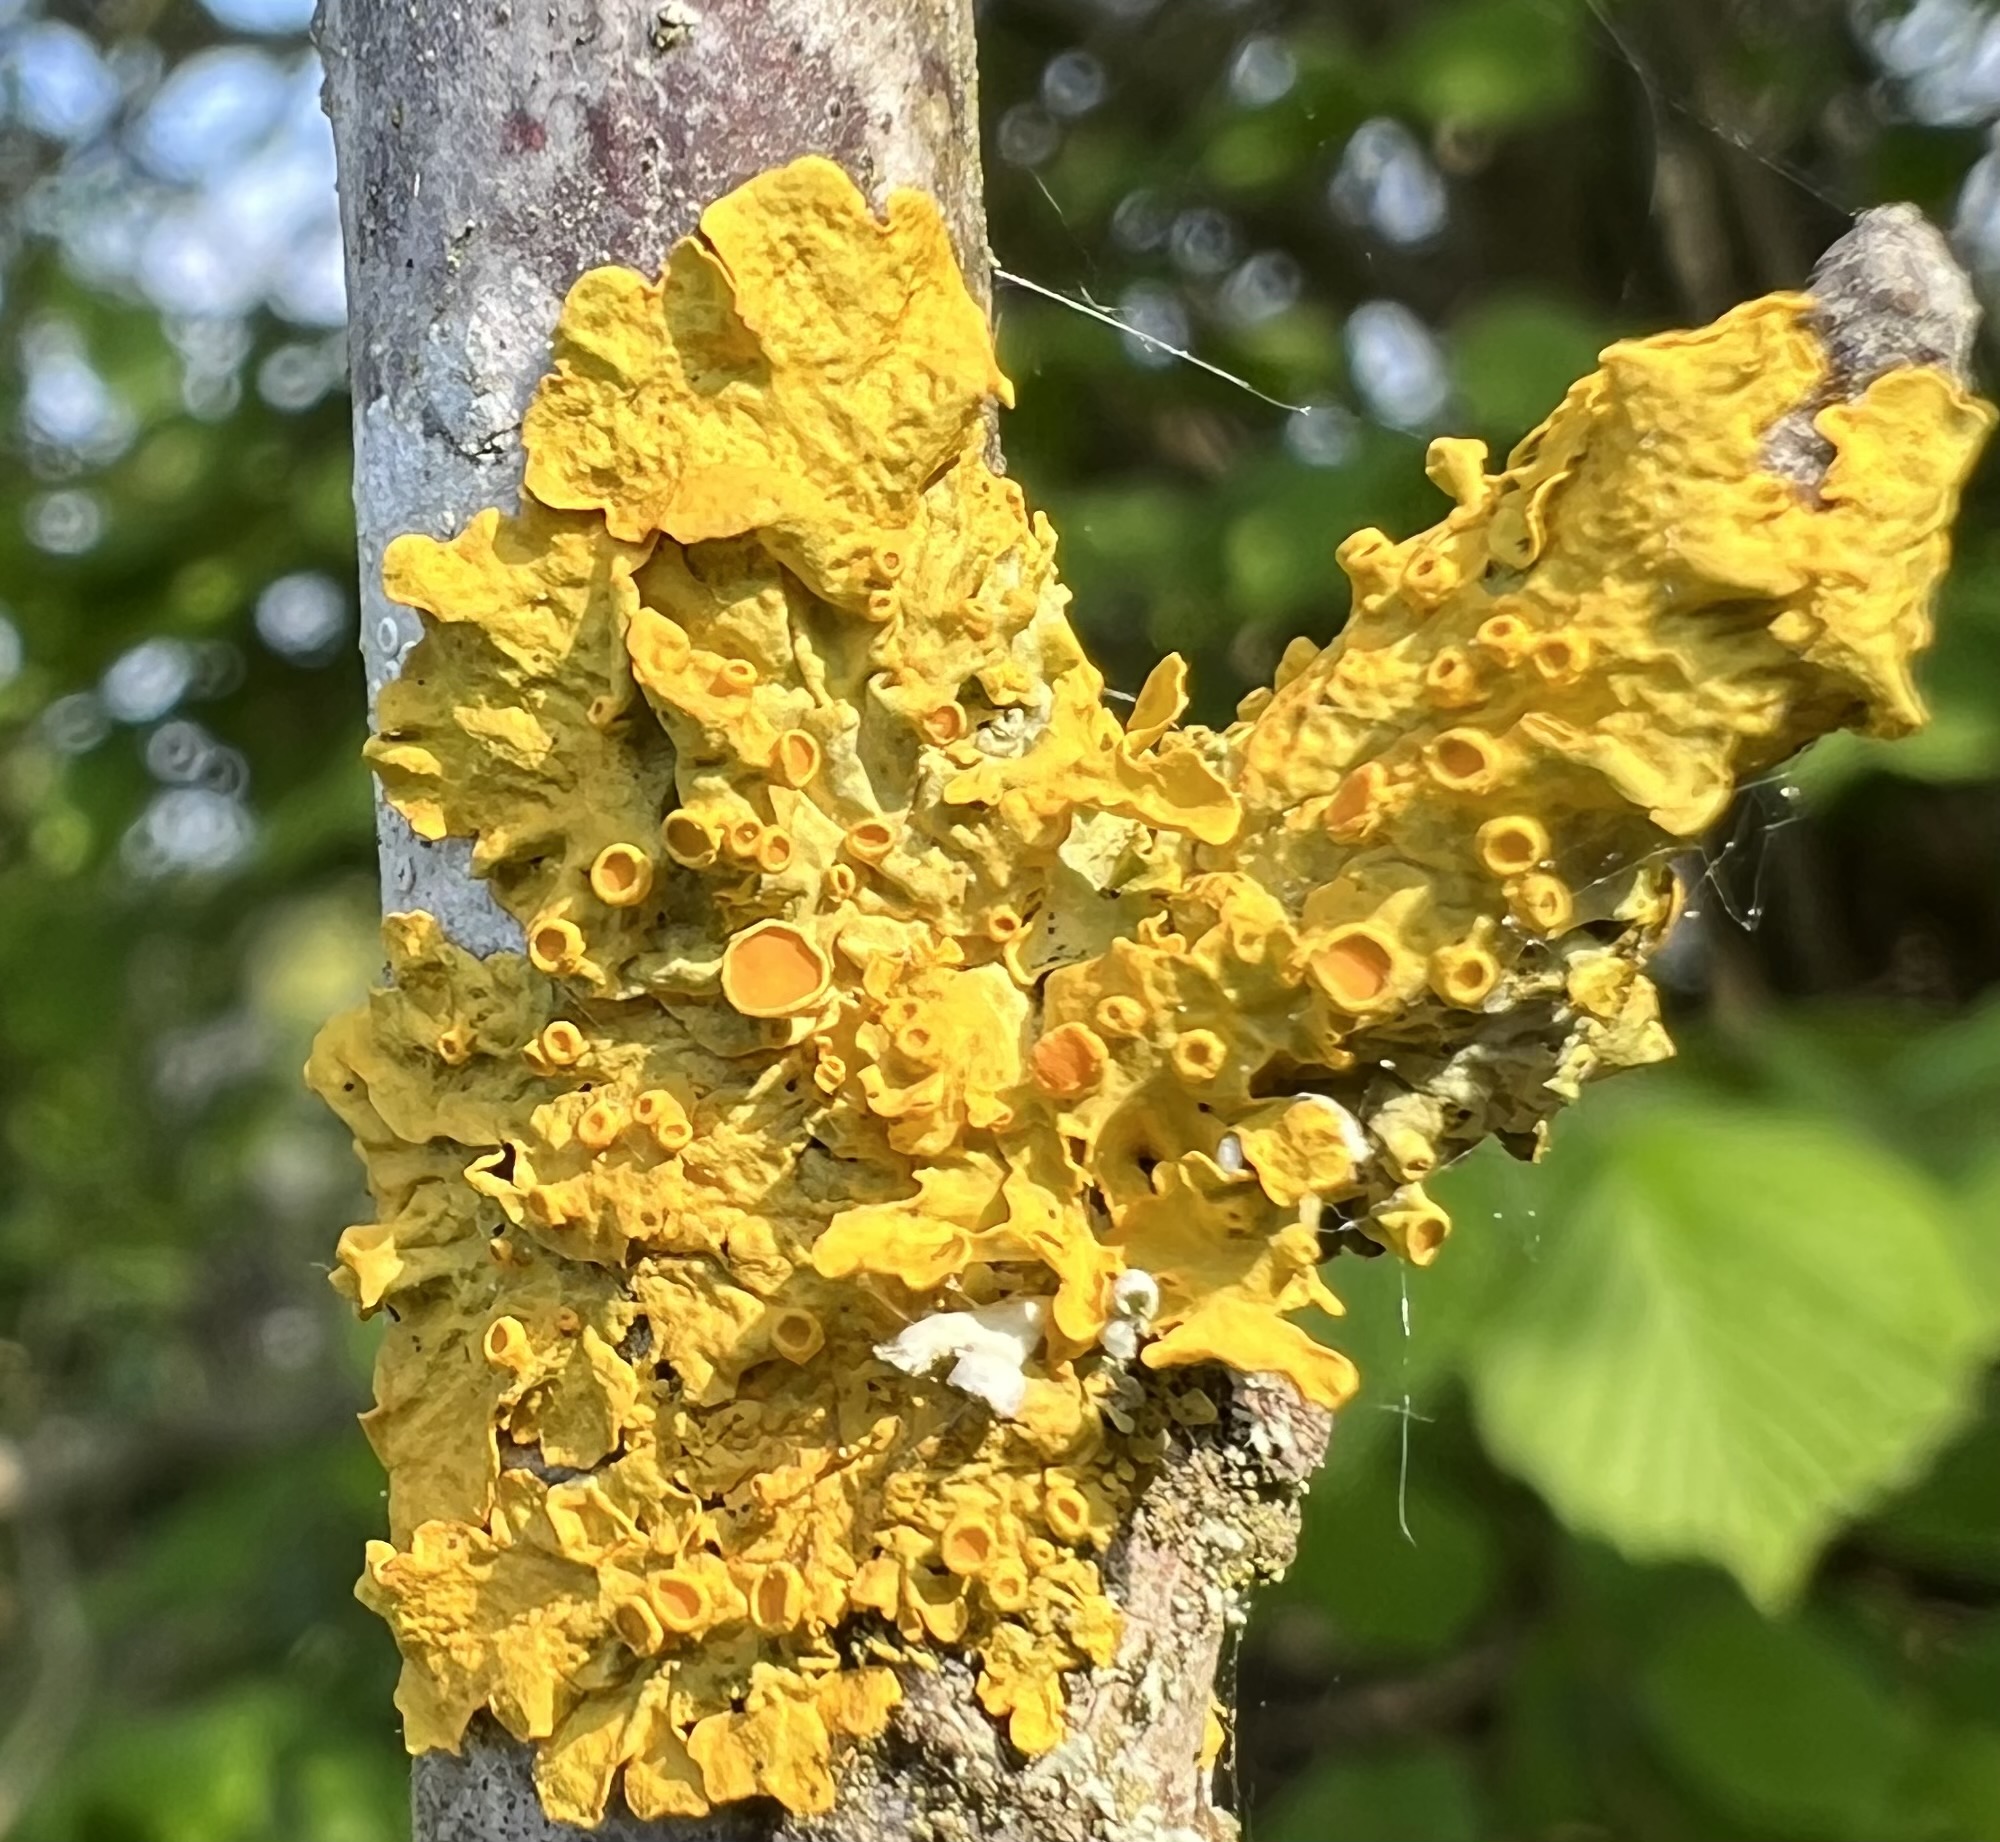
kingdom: Fungi
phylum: Ascomycota
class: Lecanoromycetes
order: Teloschistales
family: Teloschistaceae
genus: Xanthoria
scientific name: Xanthoria parietina
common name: almindelig væggelav
